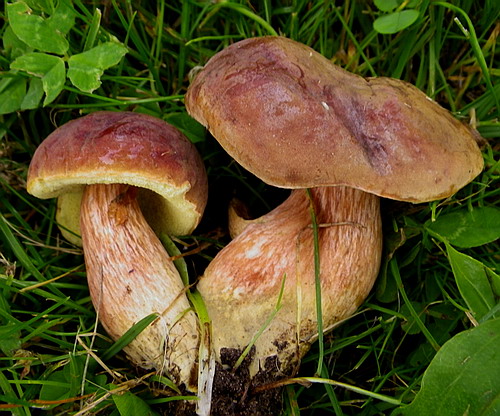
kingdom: Fungi
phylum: Basidiomycota
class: Agaricomycetes
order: Boletales
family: Boletaceae
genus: Hortiboletus
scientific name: Hortiboletus engelii
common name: fersken-rørhat
